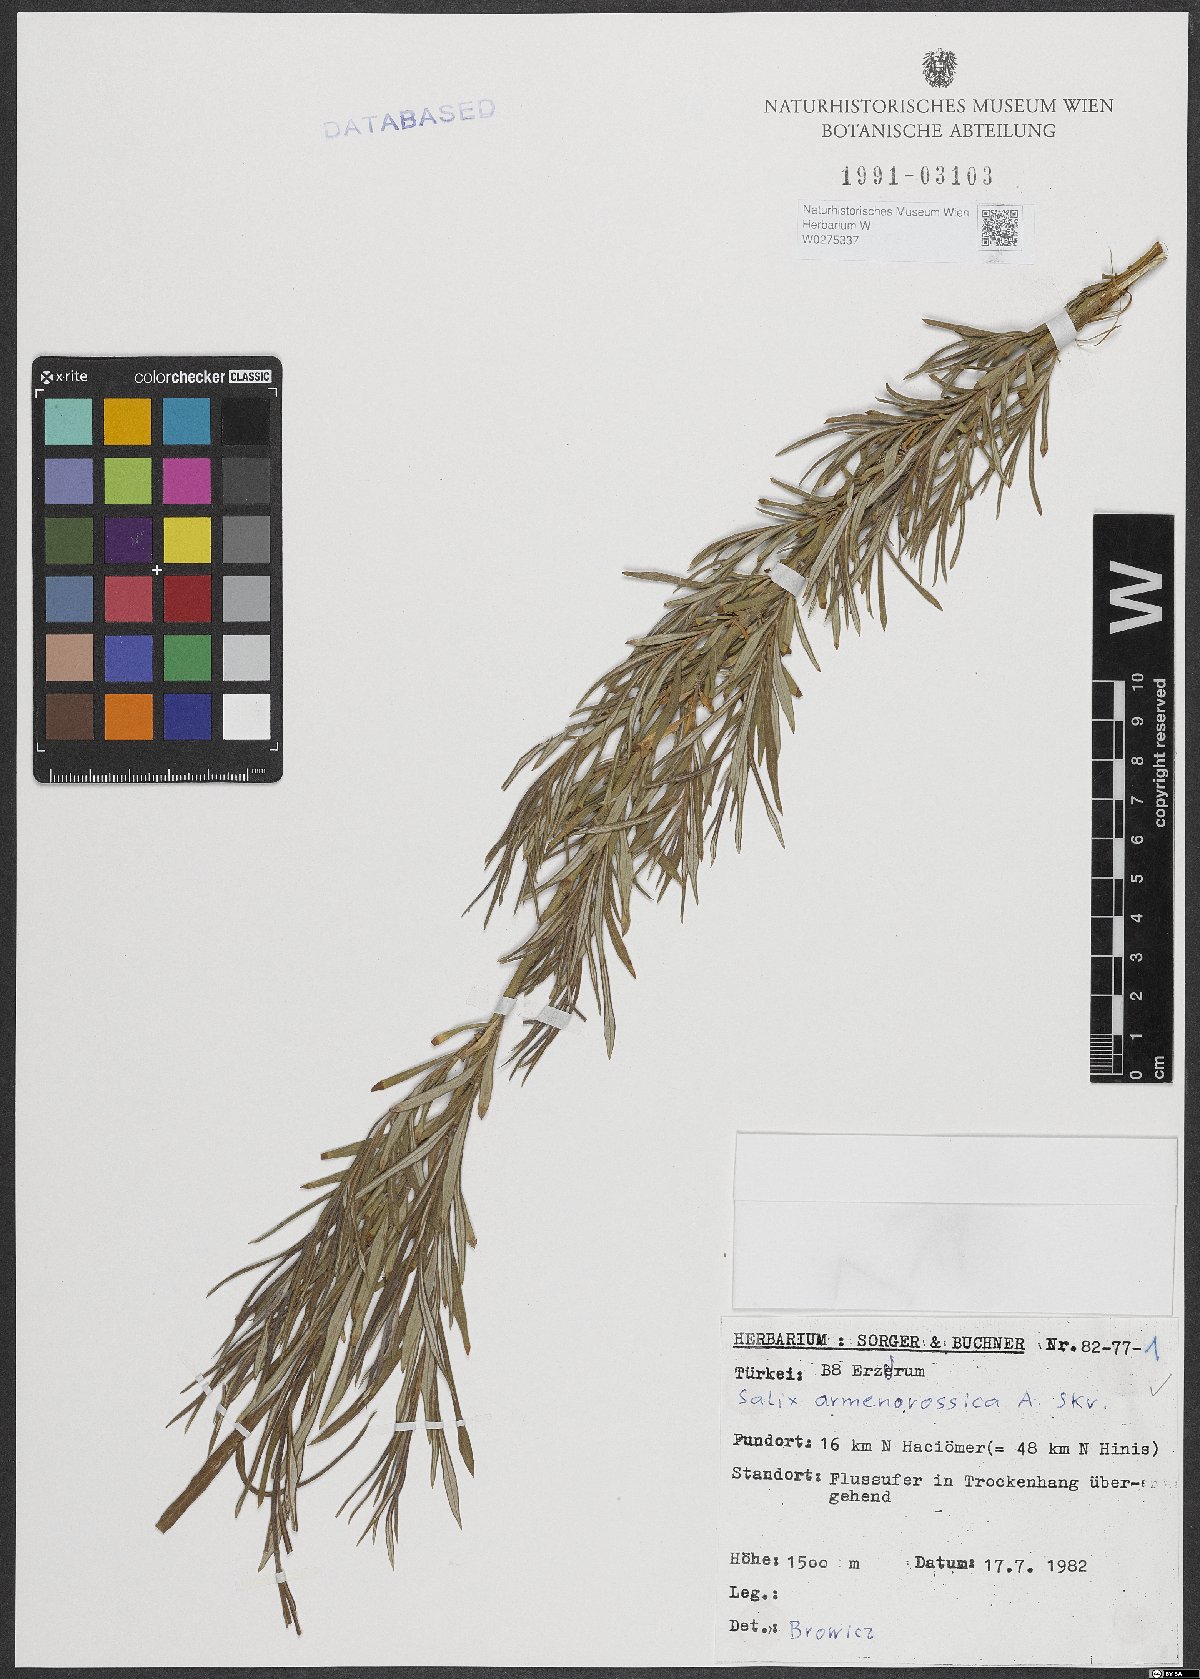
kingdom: Plantae
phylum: Tracheophyta
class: Magnoliopsida
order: Malpighiales
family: Salicaceae
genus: Salix
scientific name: Salix viminalis
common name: Osier
